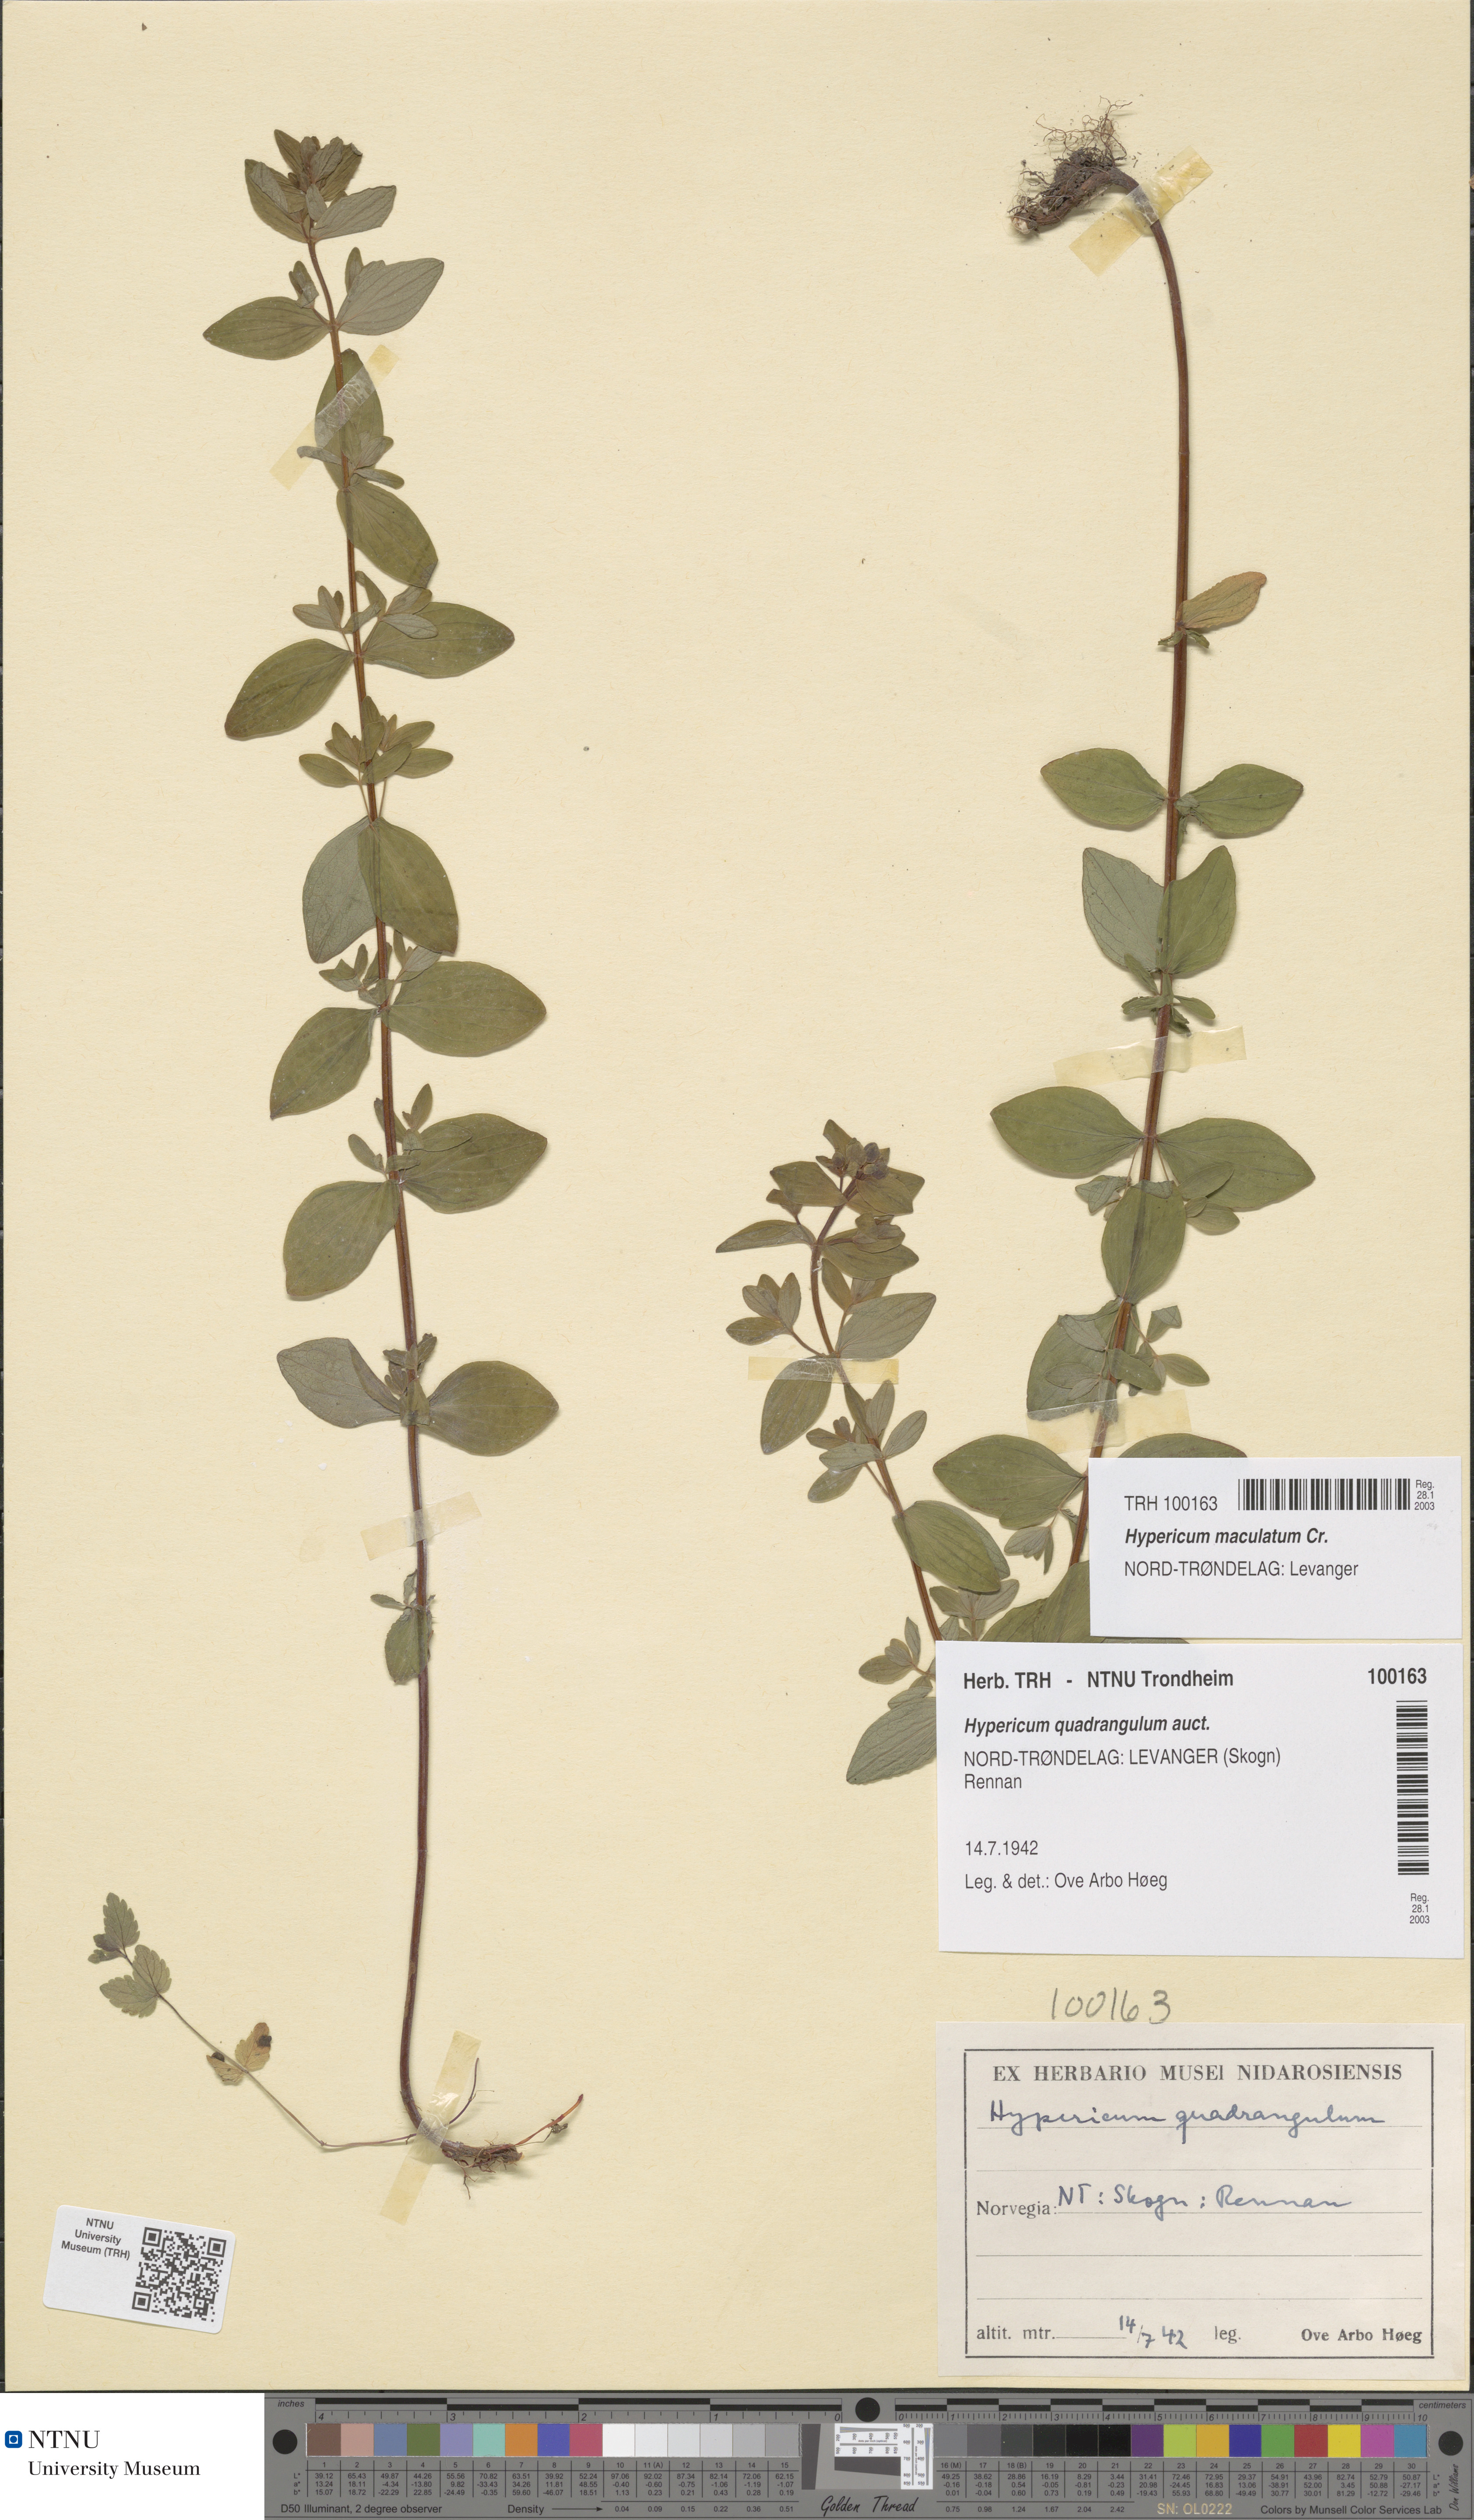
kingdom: Plantae
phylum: Tracheophyta
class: Magnoliopsida
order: Malpighiales
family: Hypericaceae
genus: Hypericum
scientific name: Hypericum maculatum
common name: Imperforate st. john's-wort
